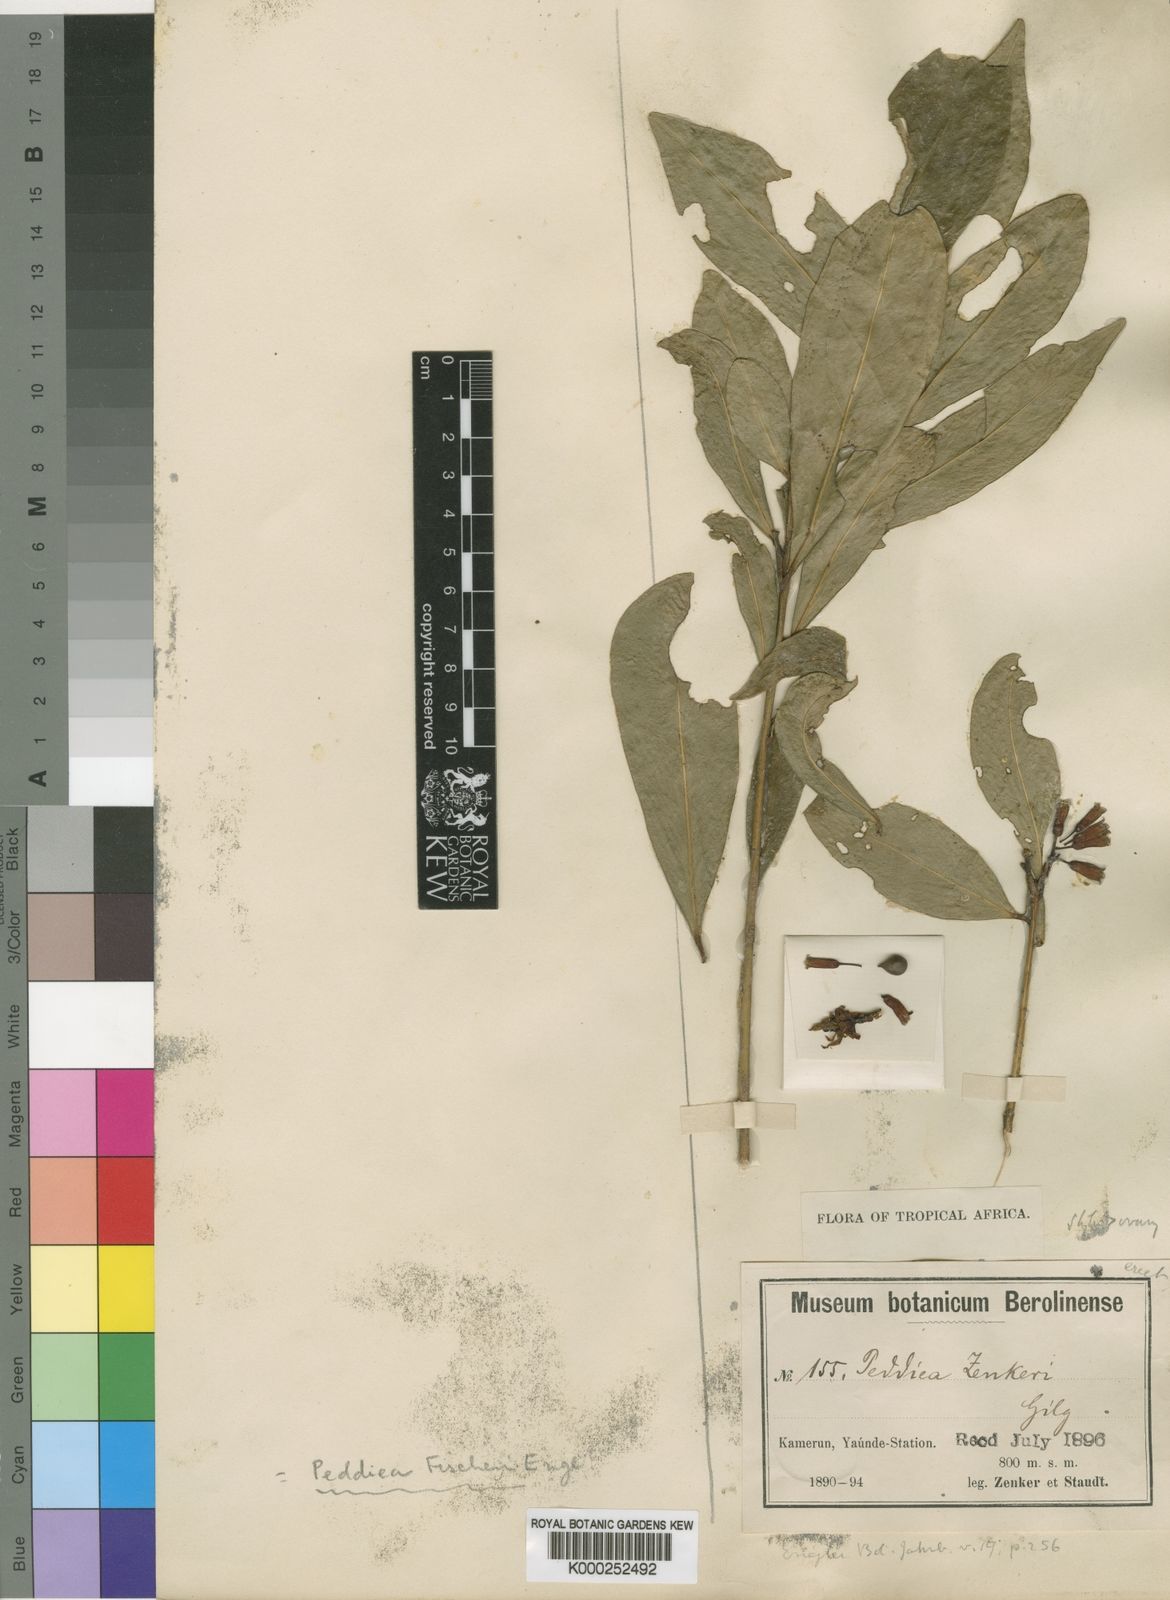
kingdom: Plantae
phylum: Tracheophyta
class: Magnoliopsida
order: Malvales
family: Thymelaeaceae
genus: Peddiea
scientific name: Peddiea fischeri
